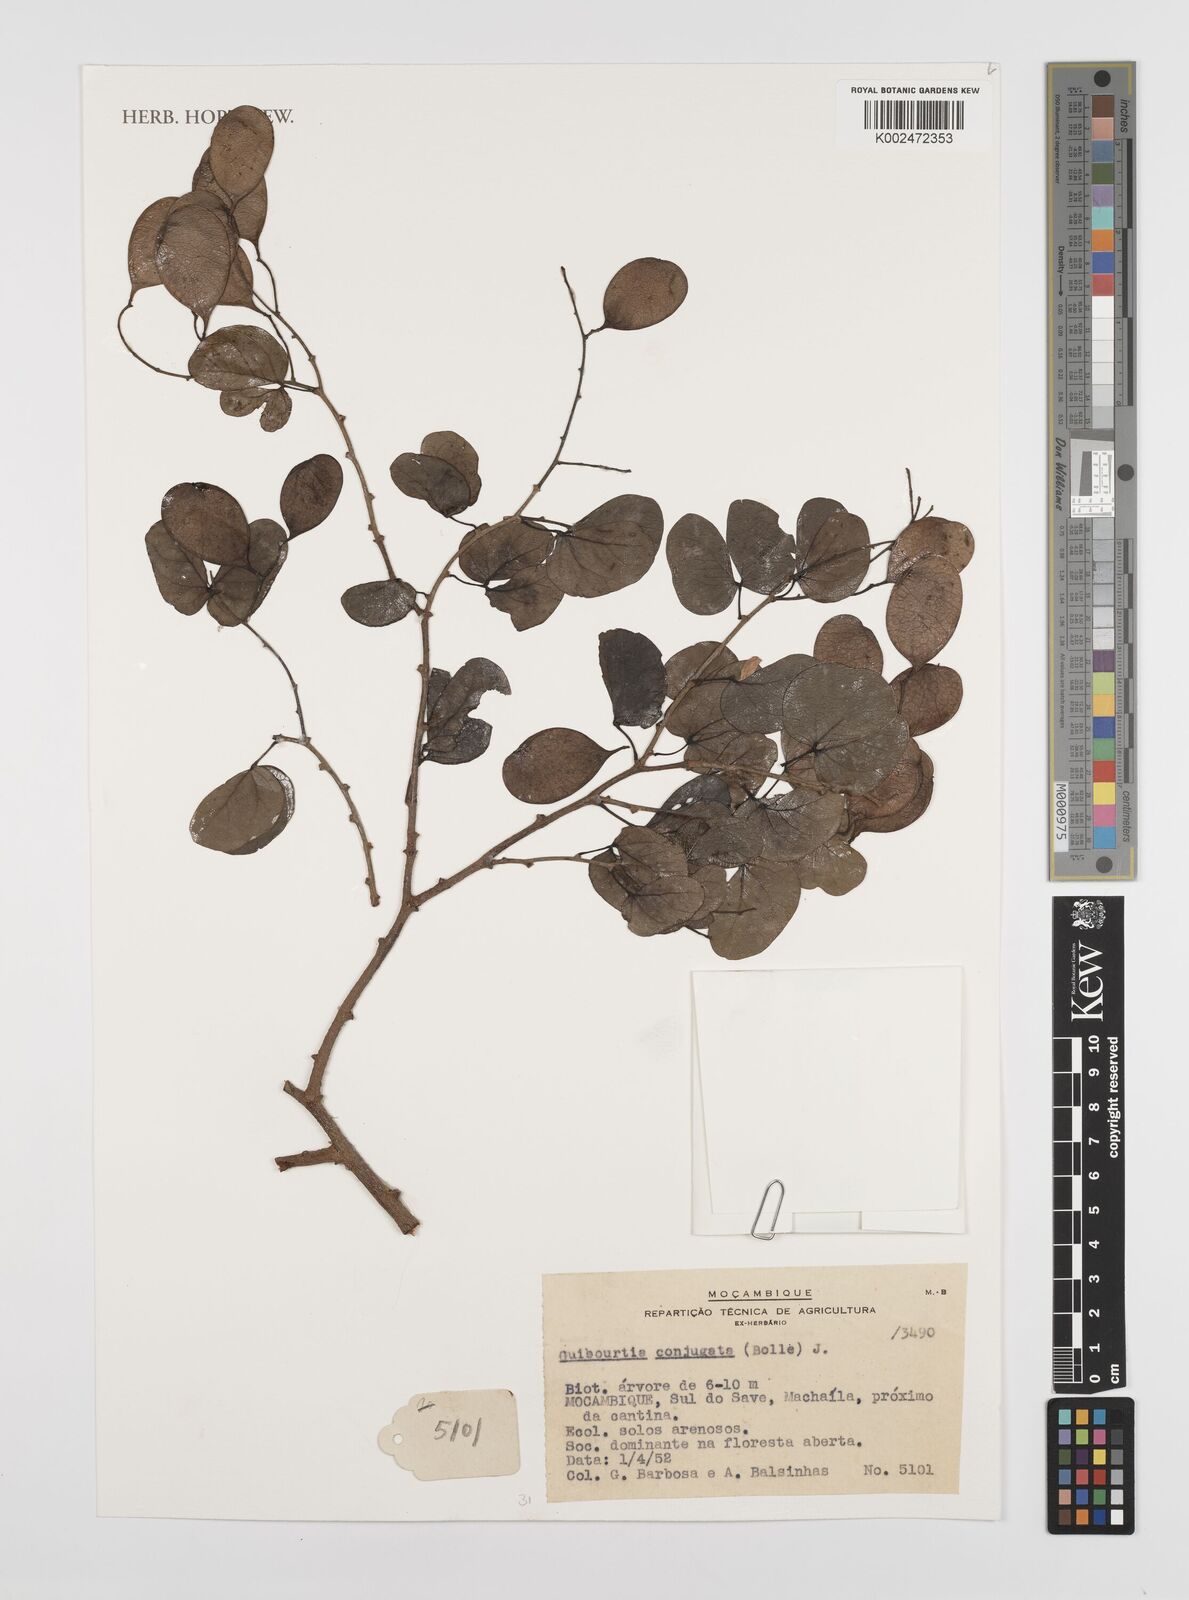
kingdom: Plantae
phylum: Tracheophyta
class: Magnoliopsida
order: Fabales
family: Fabaceae
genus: Guibourtia
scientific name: Guibourtia conjugata
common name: Small bastard mopane
